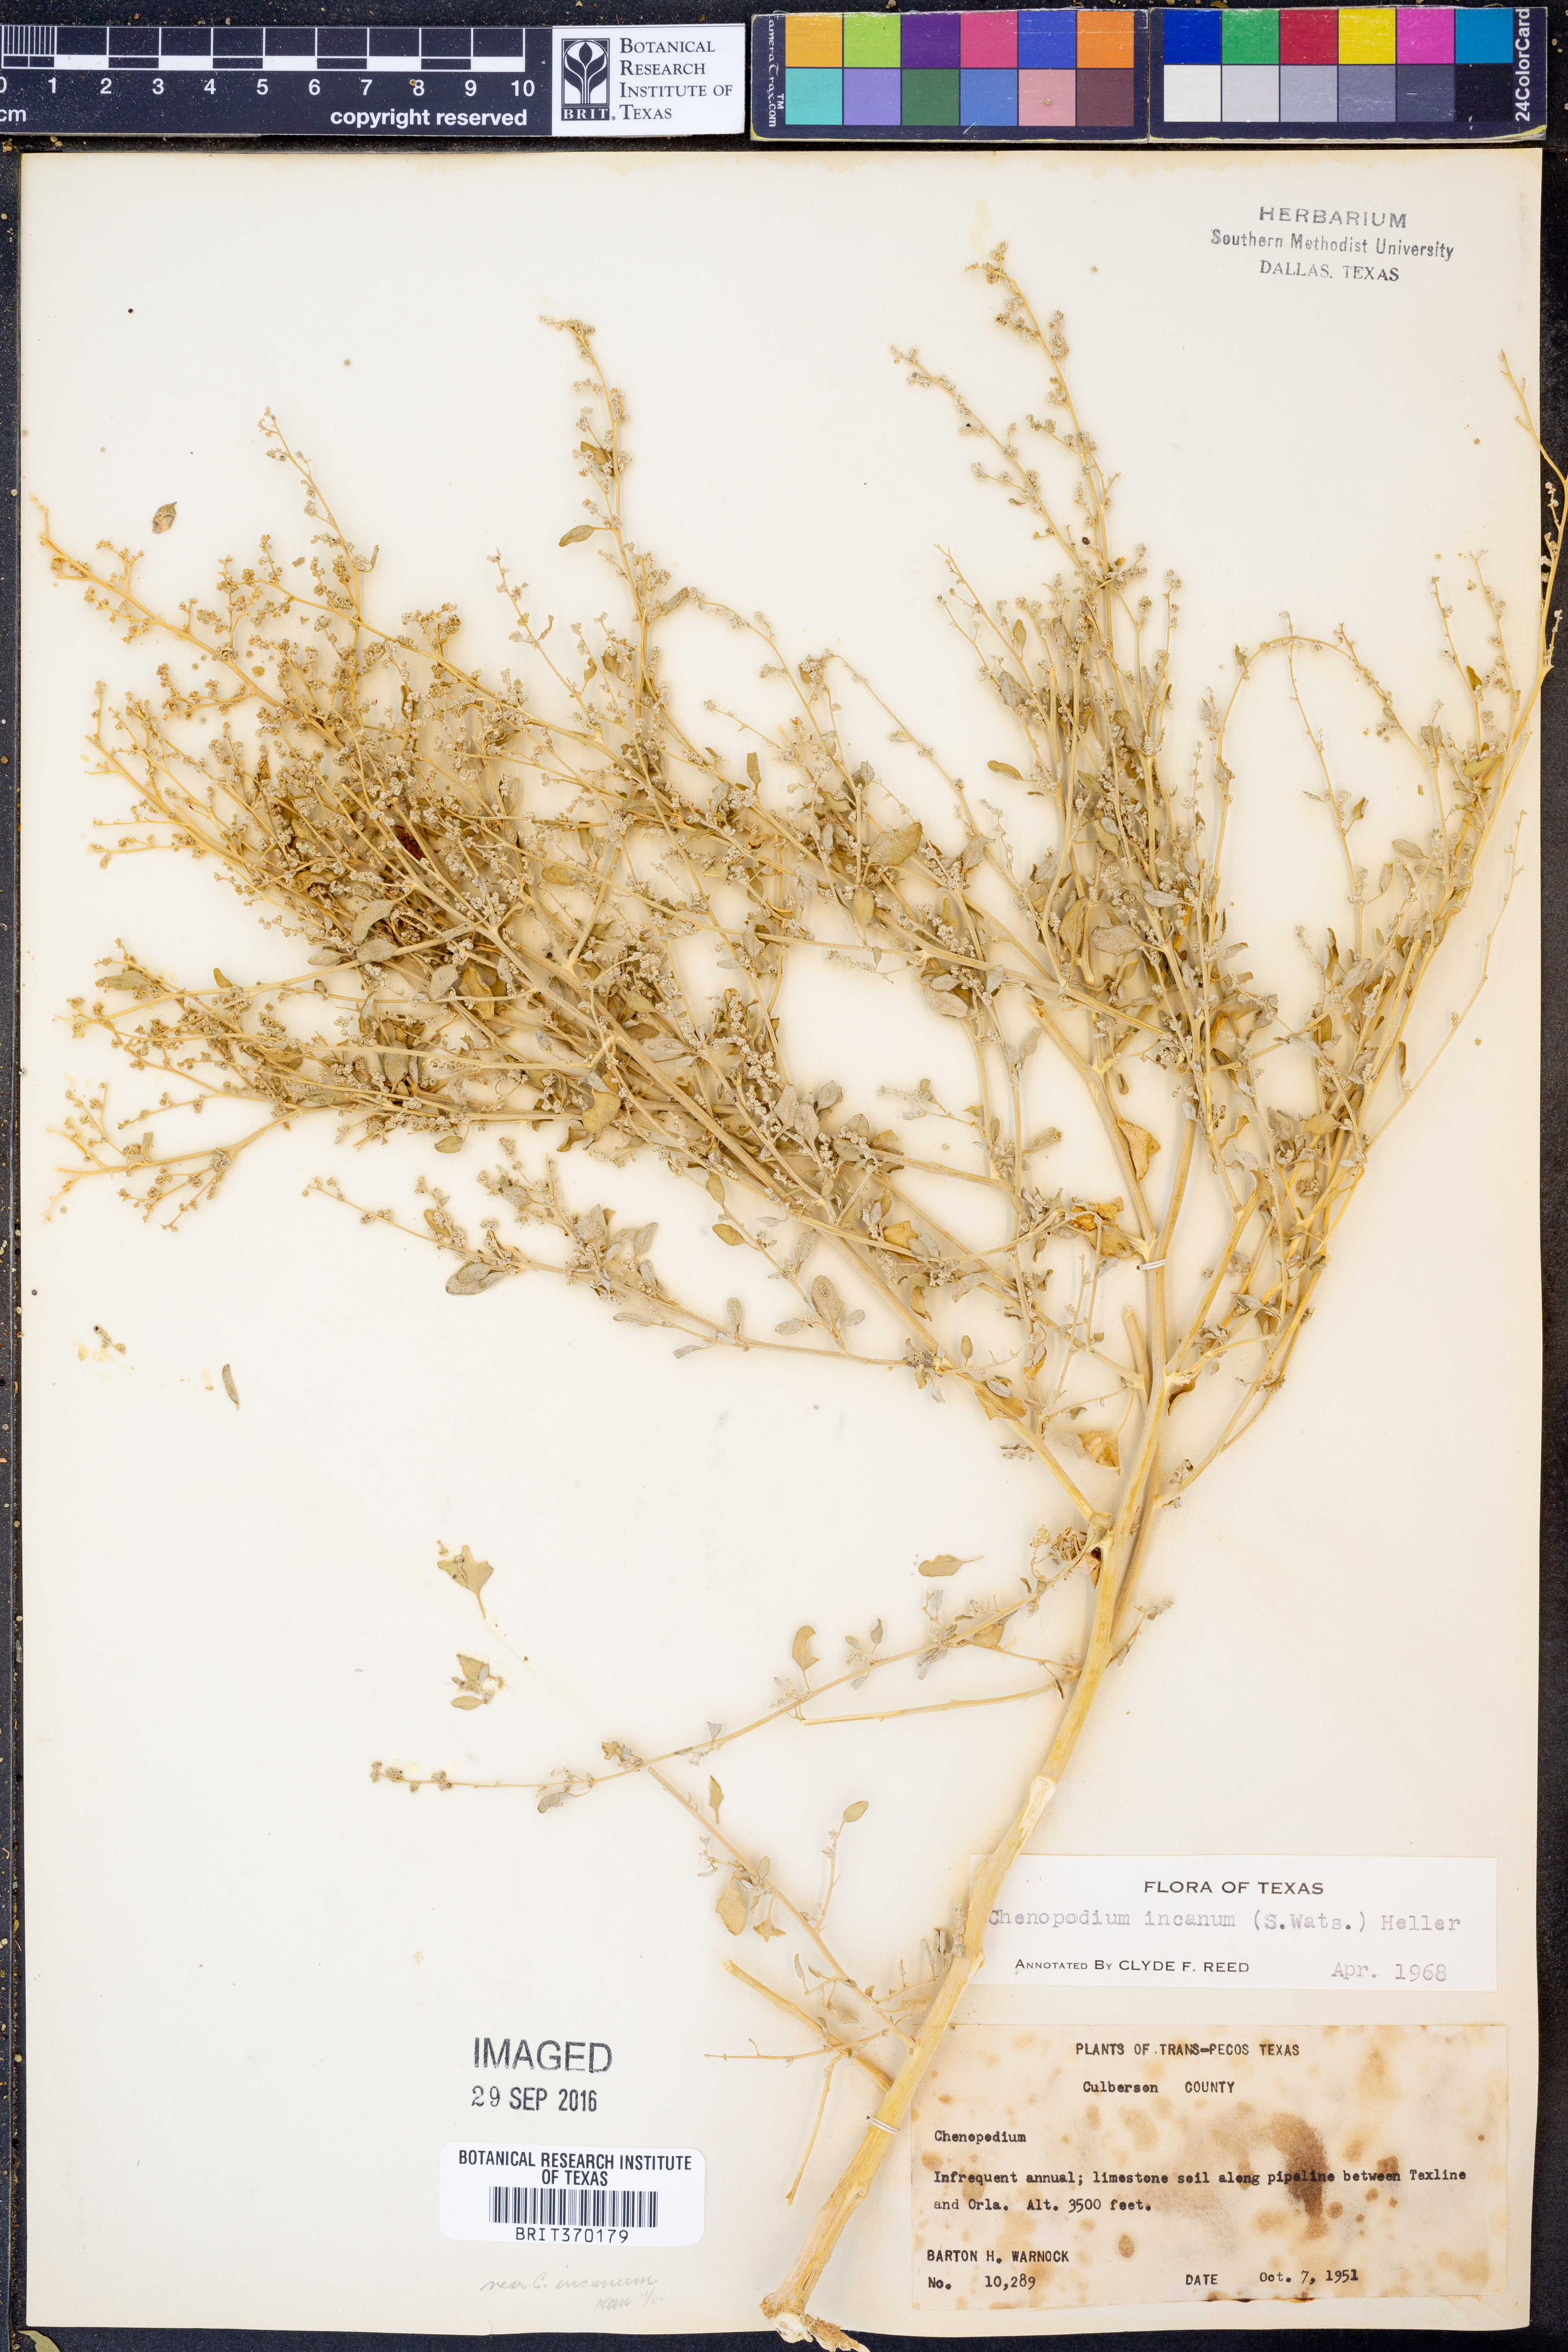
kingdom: Plantae
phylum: Tracheophyta
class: Magnoliopsida
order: Caryophyllales
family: Amaranthaceae
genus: Chenopodium
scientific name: Chenopodium incanum
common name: Hoary goosefoot
